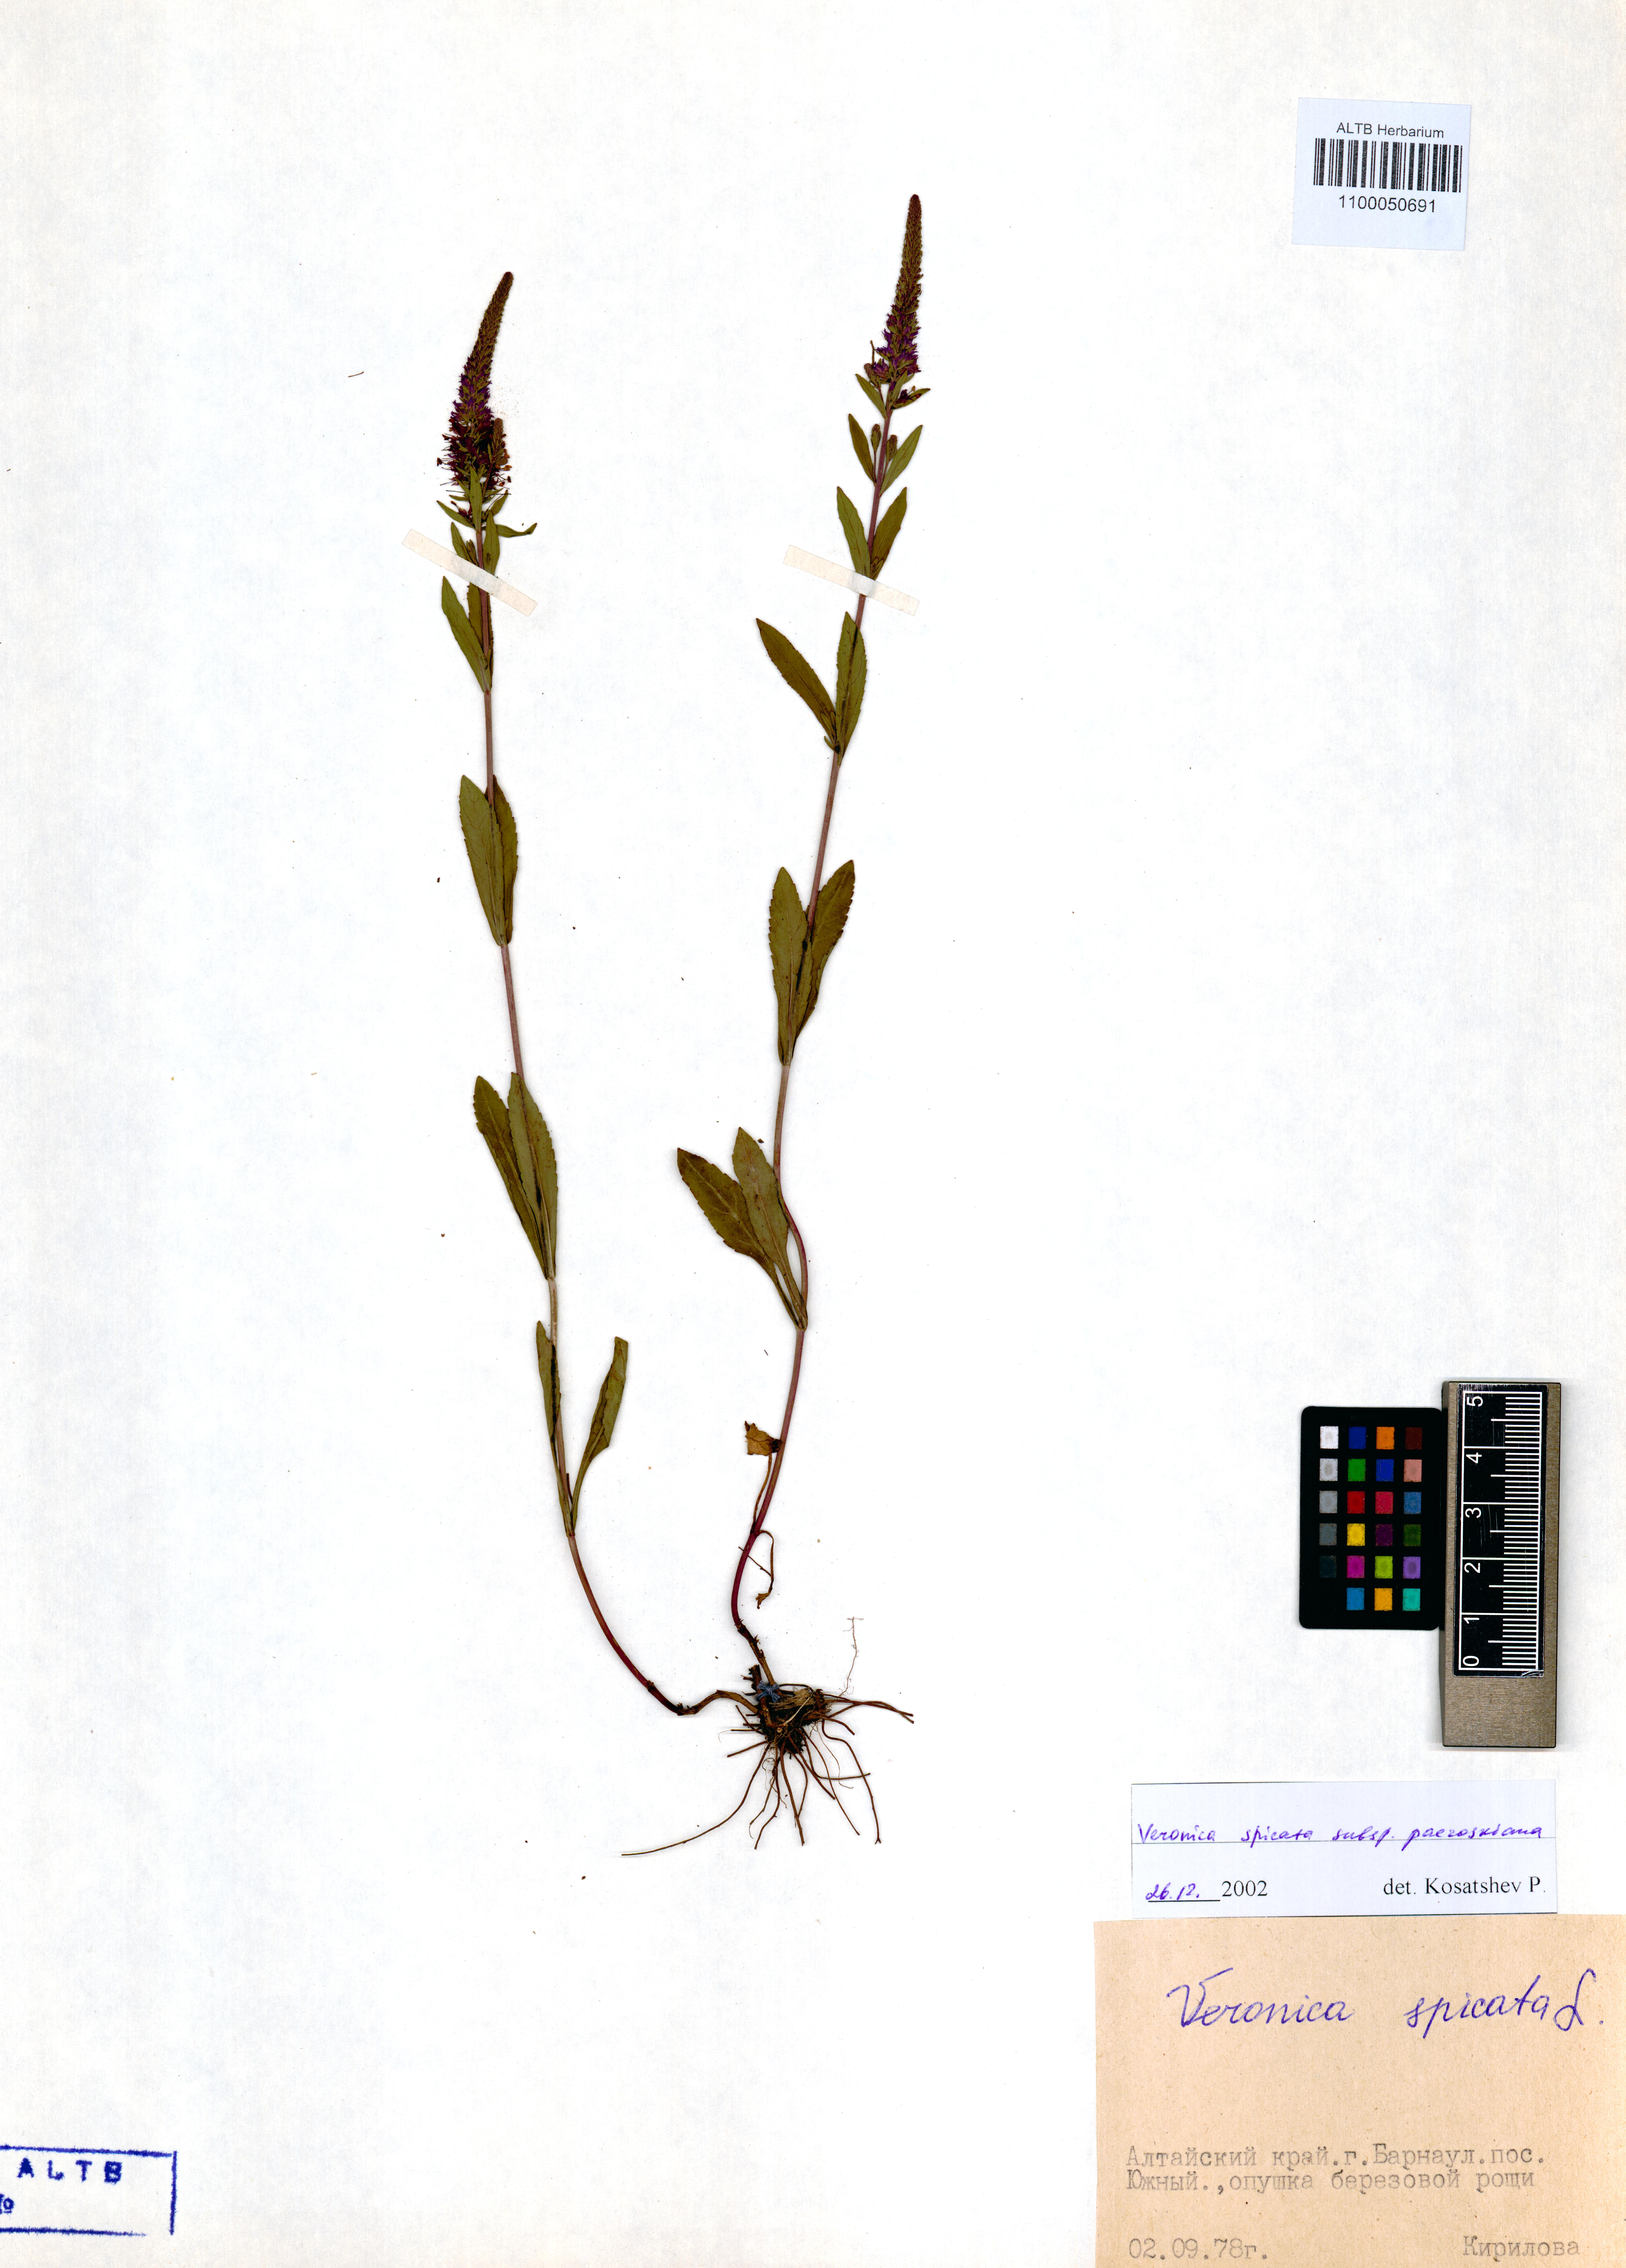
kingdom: Plantae
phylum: Tracheophyta
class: Magnoliopsida
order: Lamiales
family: Plantaginaceae
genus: Veronica
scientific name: Veronica spicata
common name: Spiked speedwell
